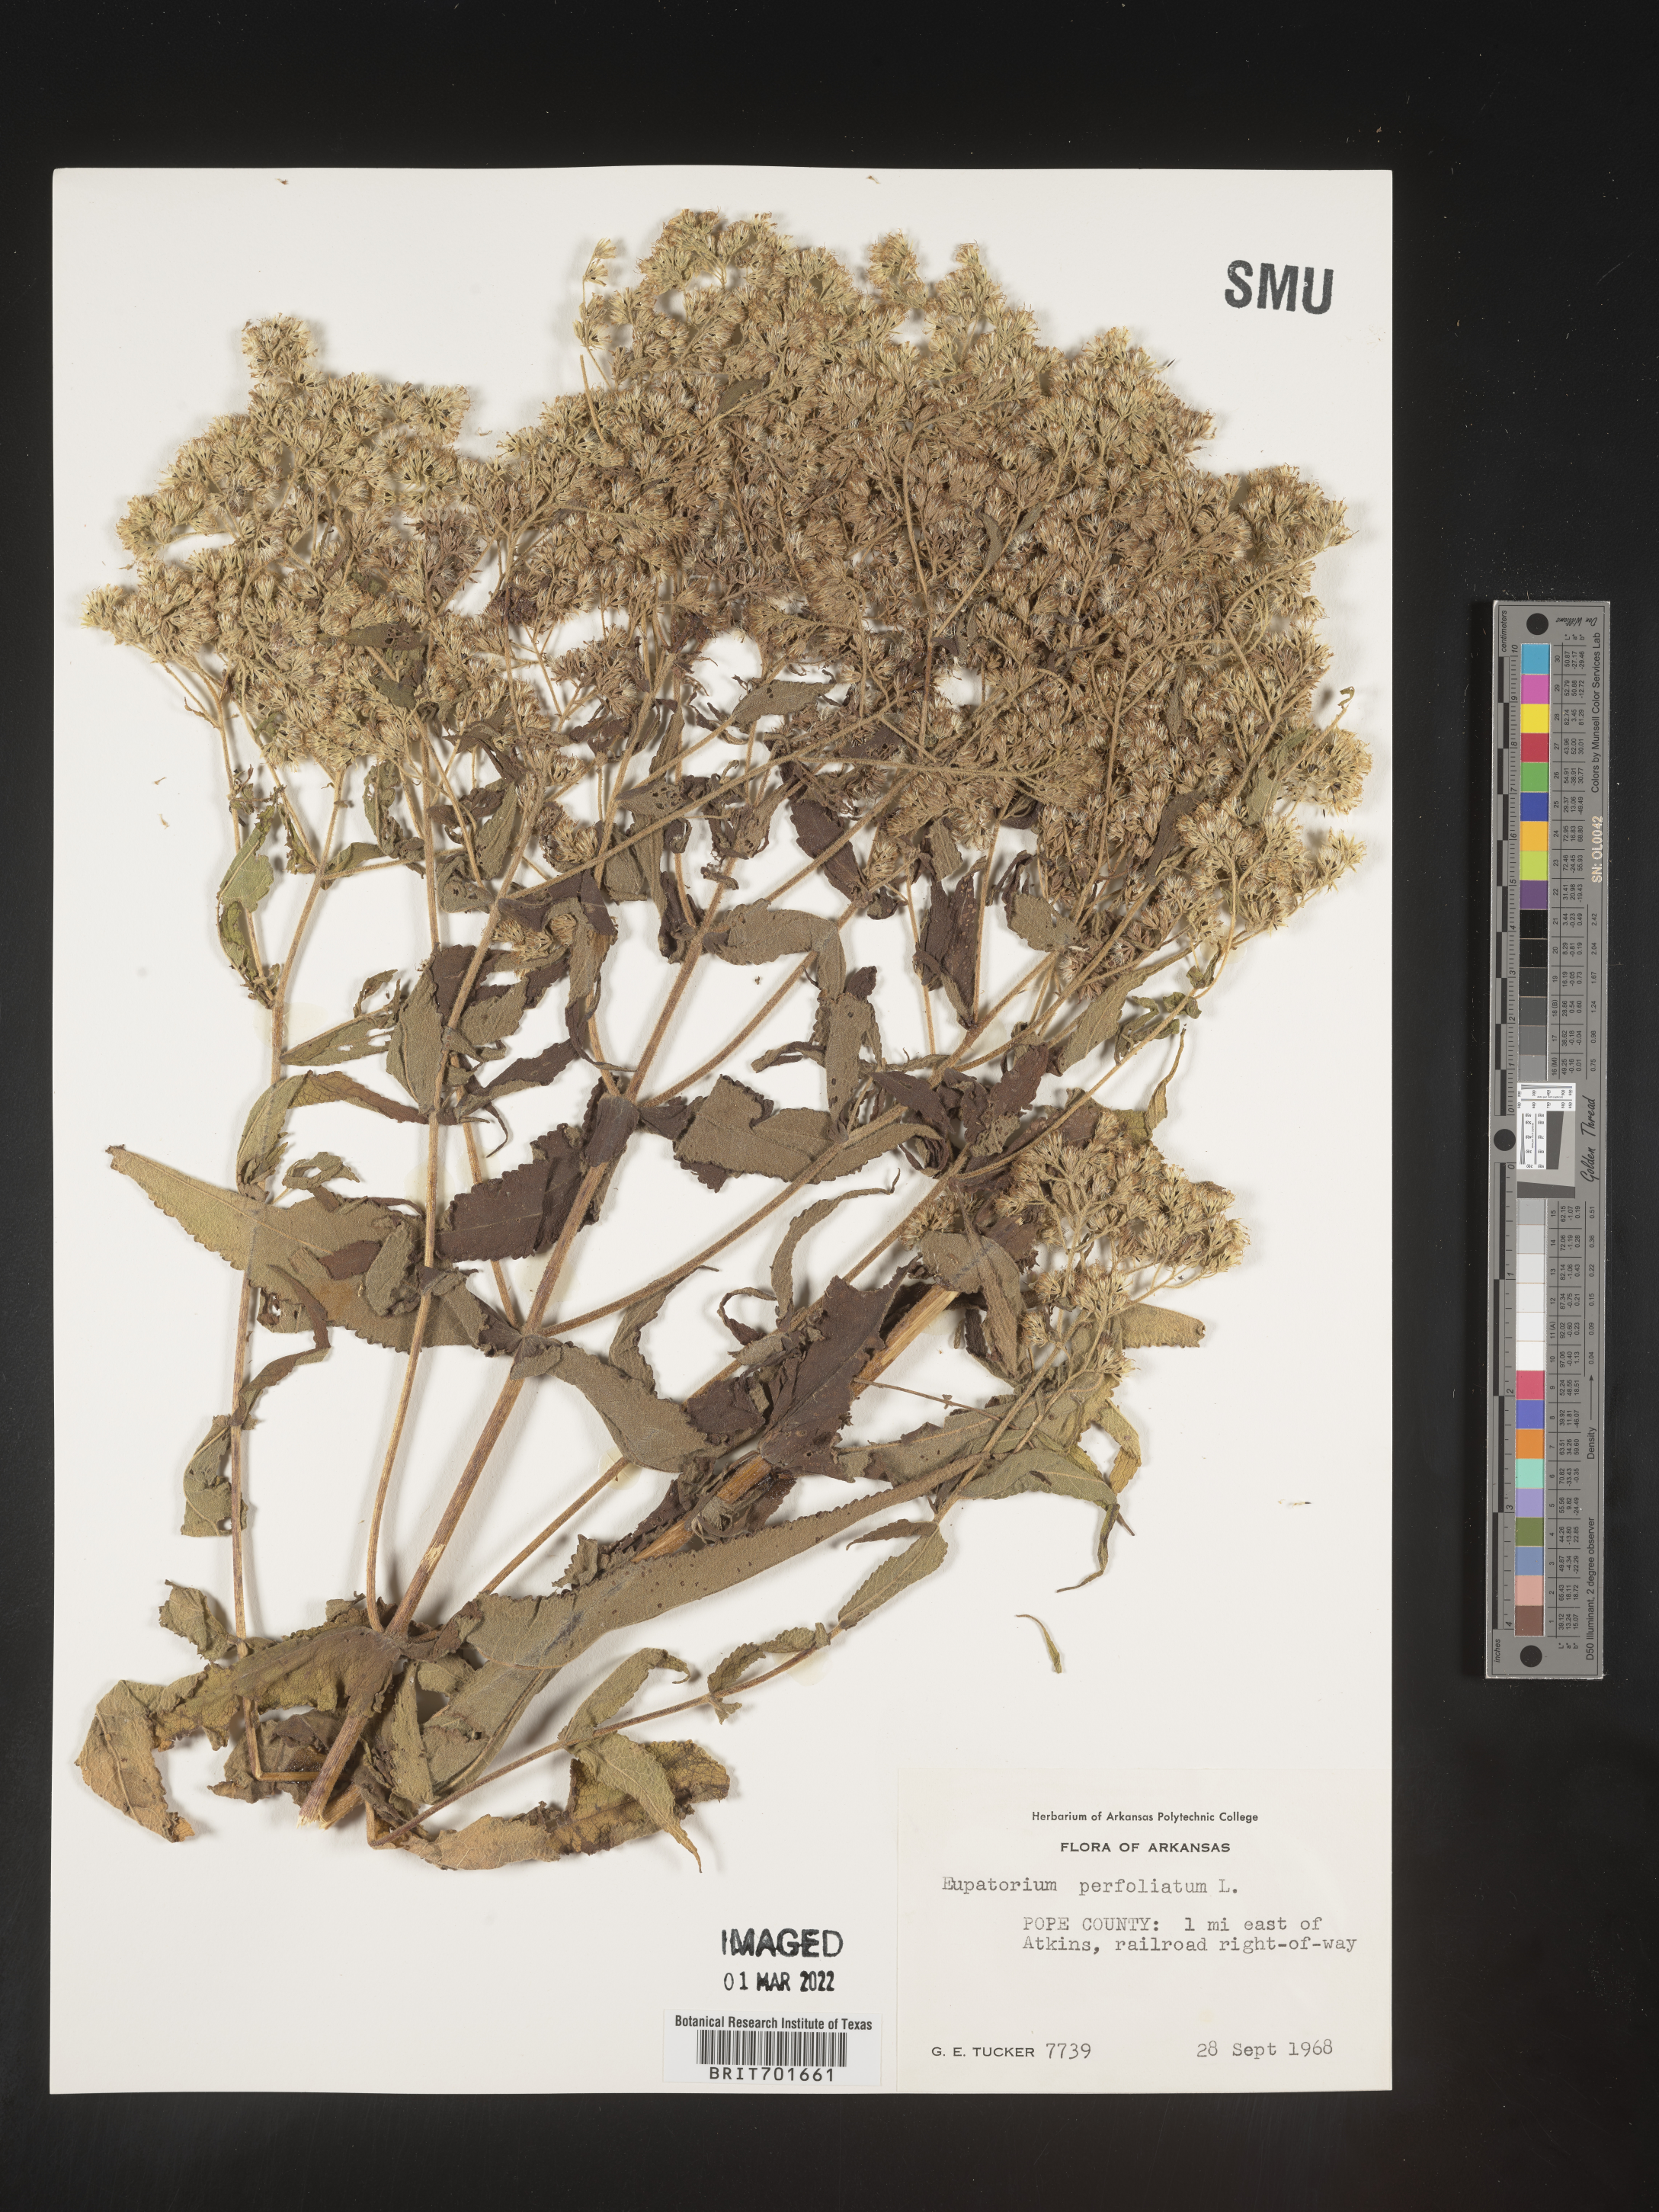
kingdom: Plantae
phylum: Tracheophyta
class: Magnoliopsida
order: Asterales
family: Asteraceae
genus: Eupatorium
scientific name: Eupatorium perfoliatum
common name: Boneset
